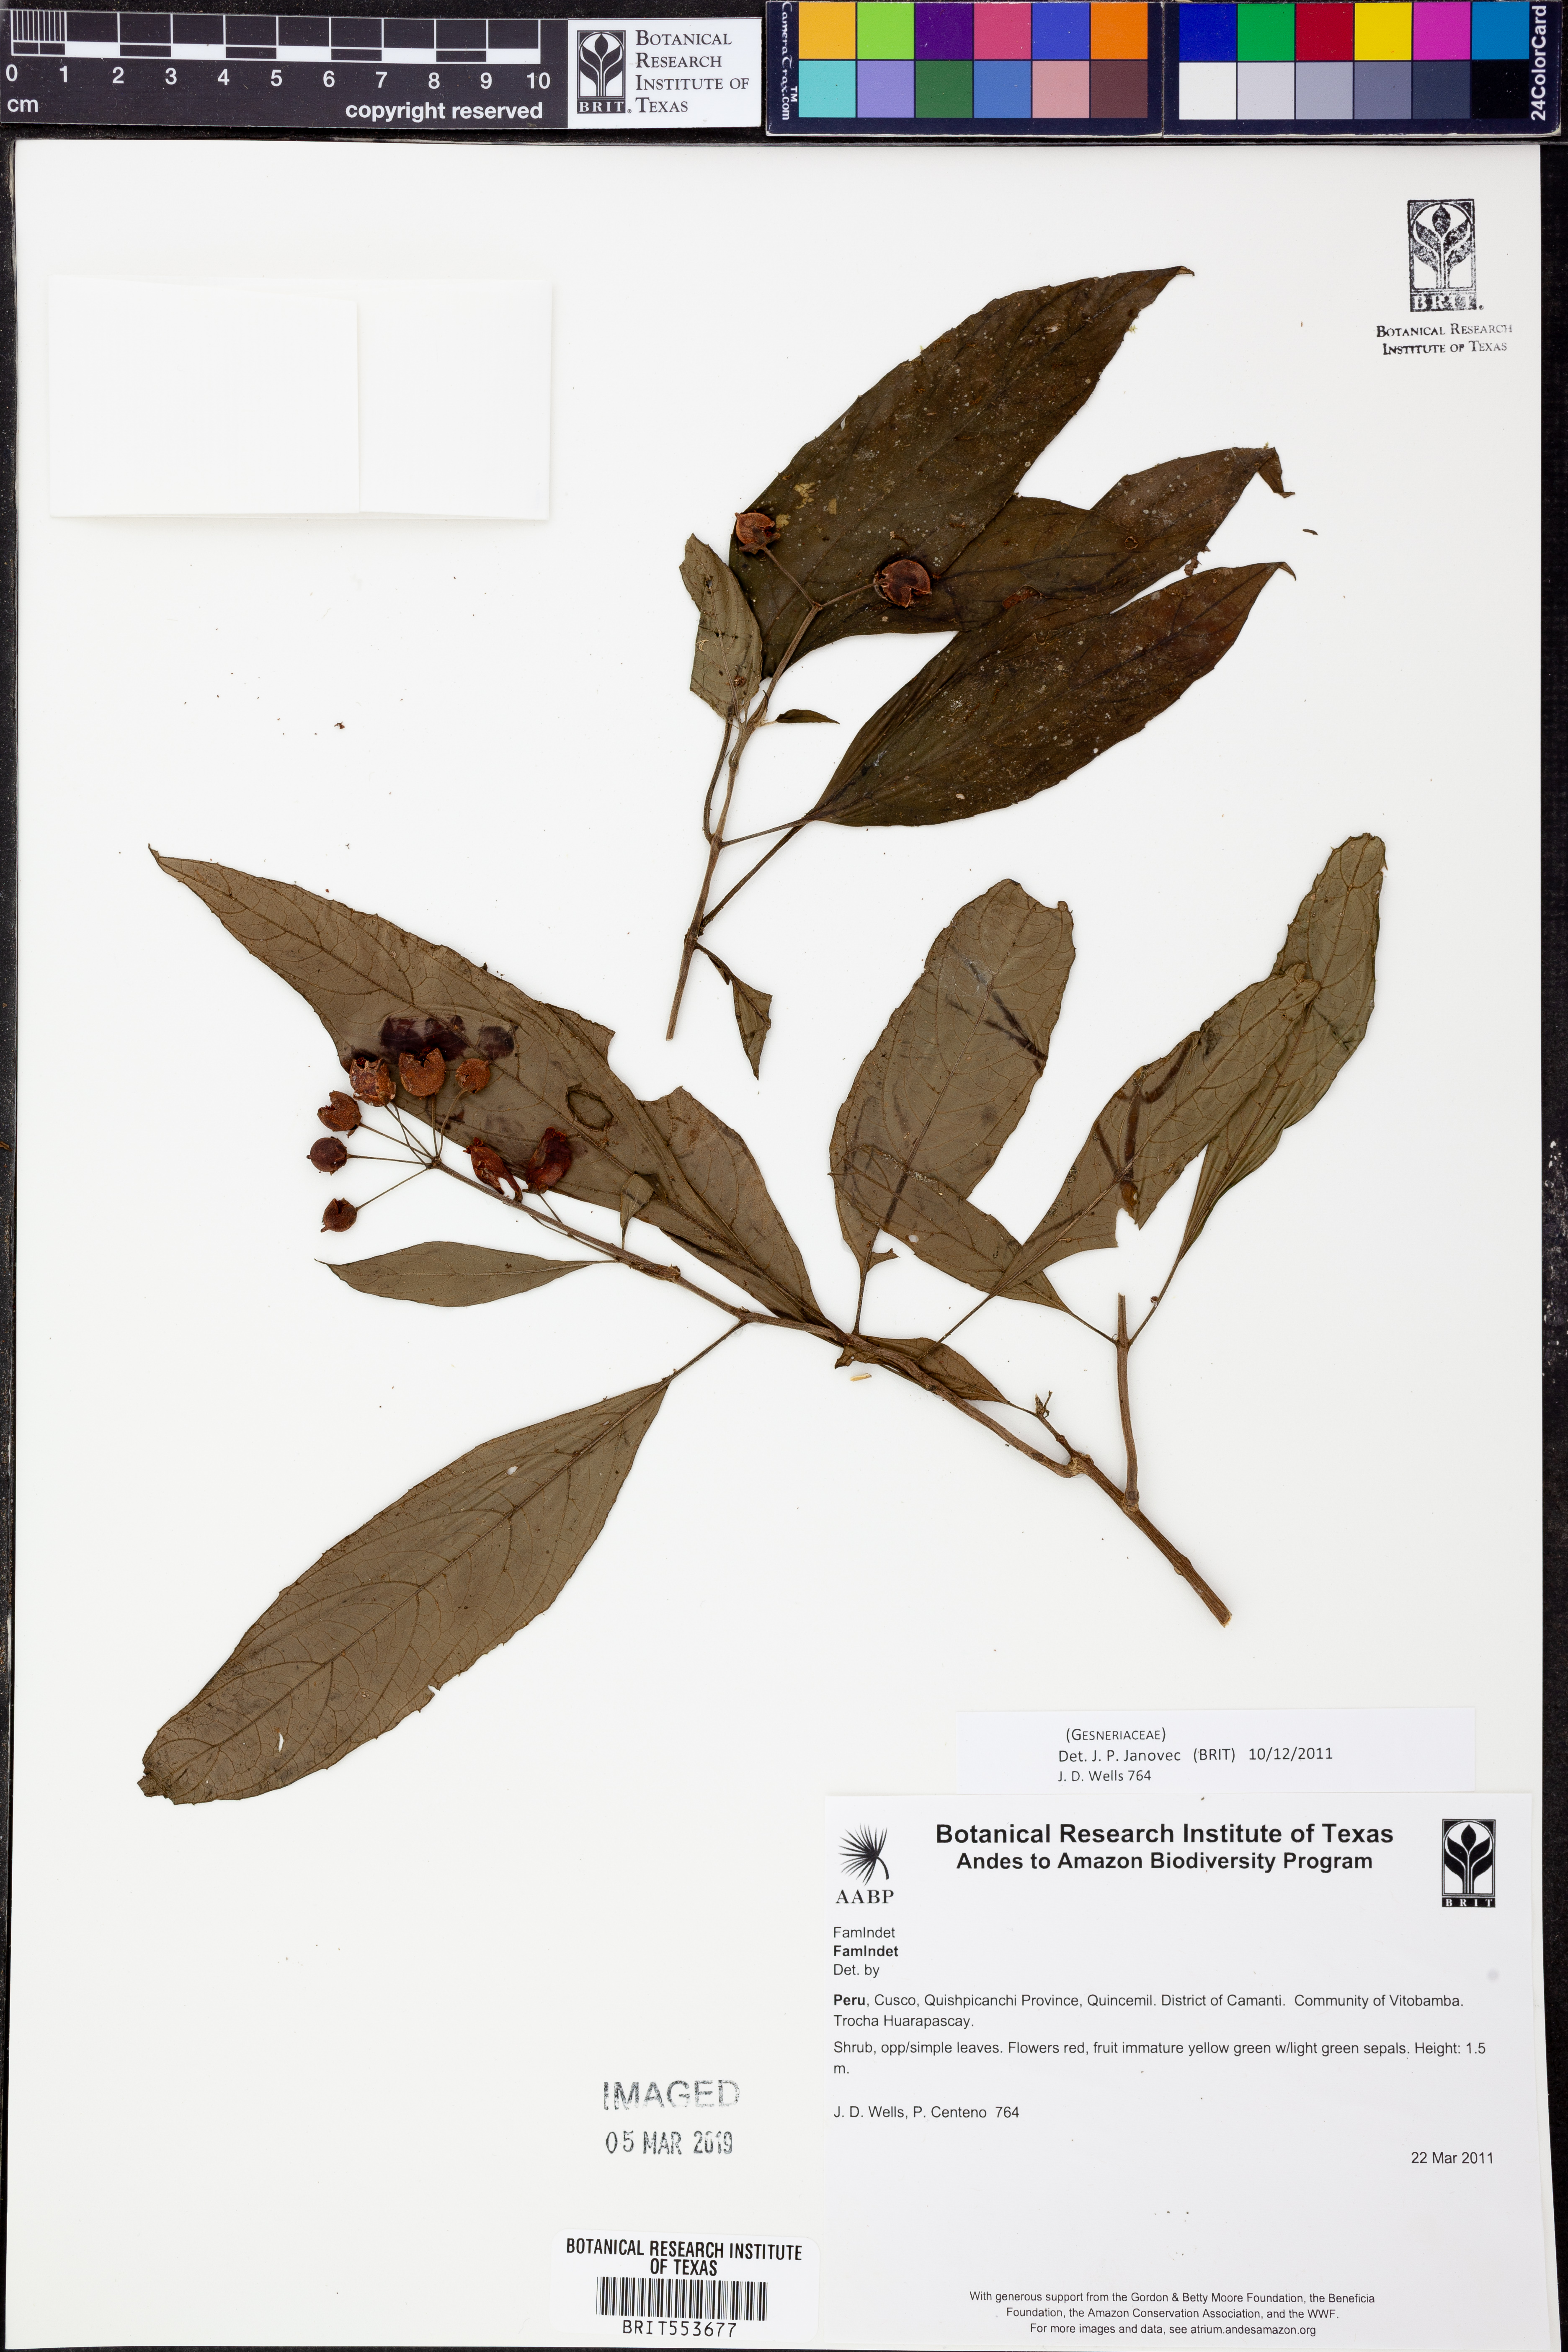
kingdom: Plantae
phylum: Tracheophyta
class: Magnoliopsida
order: Lamiales
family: Gesneriaceae
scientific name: Gesneriaceae
